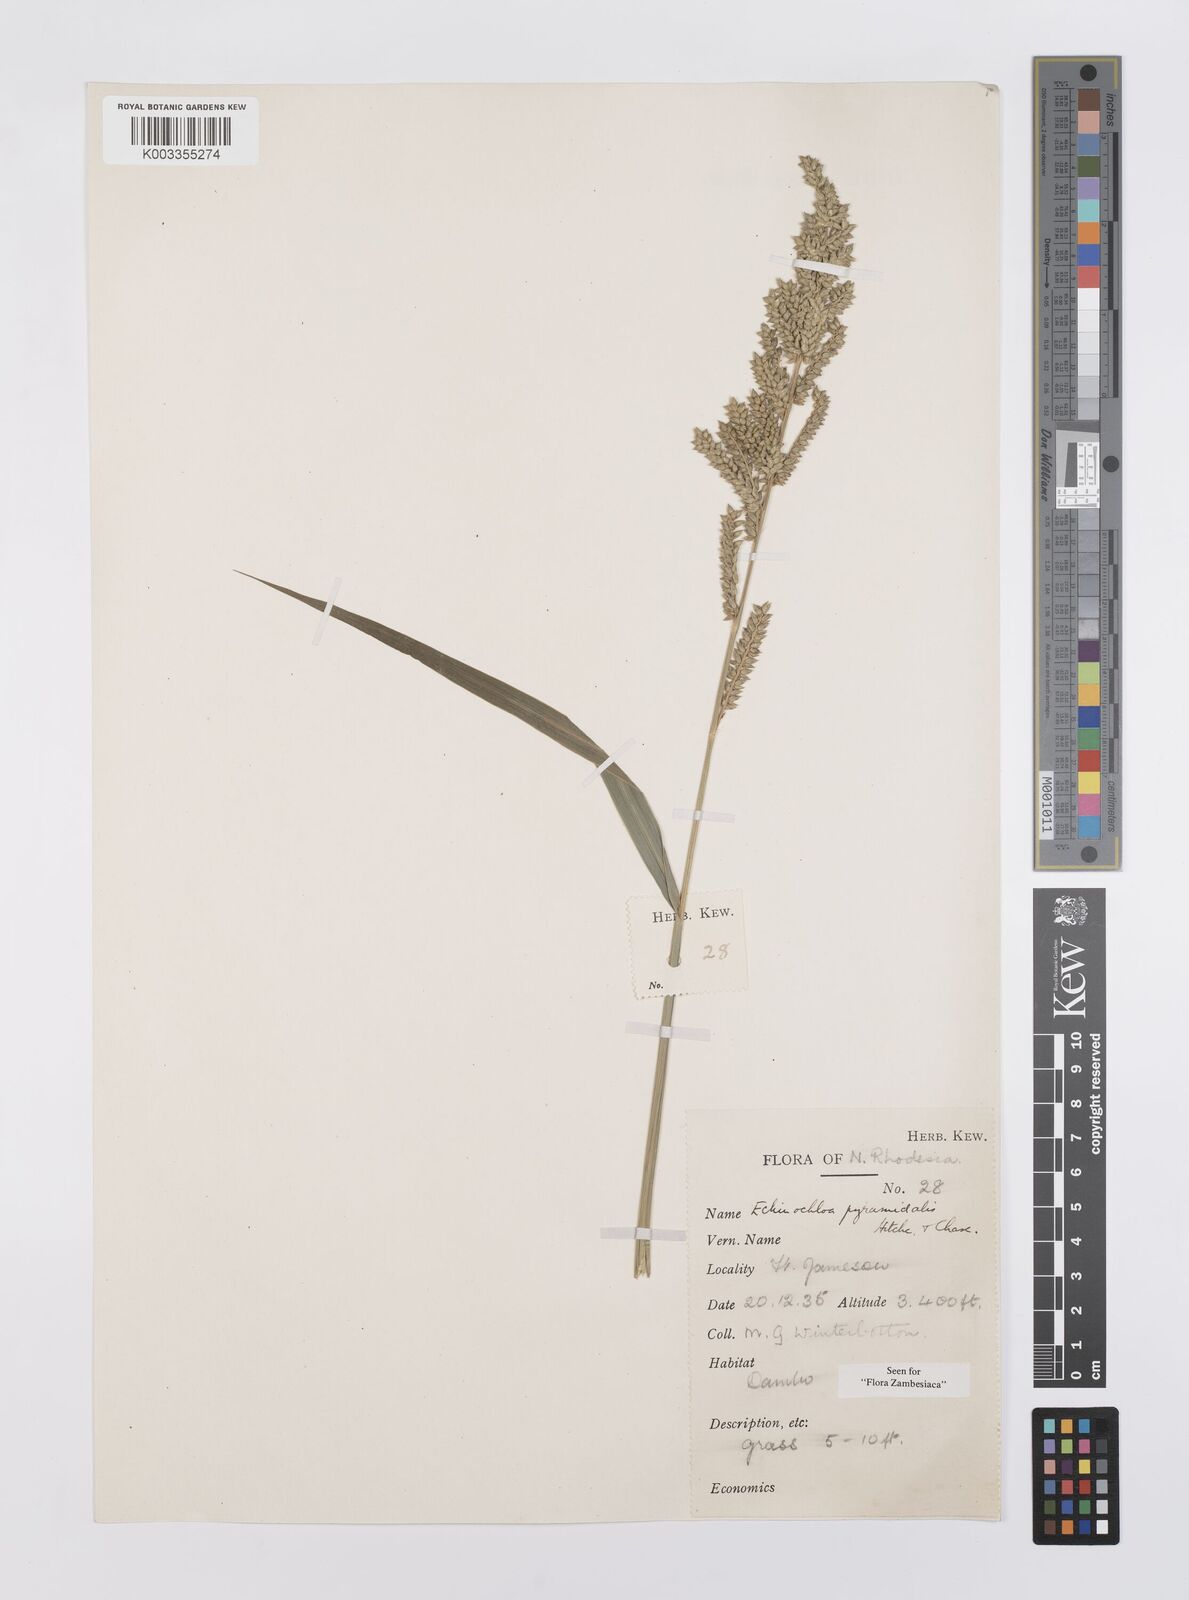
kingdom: Plantae
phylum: Tracheophyta
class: Liliopsida
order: Poales
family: Poaceae
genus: Echinochloa
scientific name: Echinochloa pyramidalis
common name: Antelope grass
